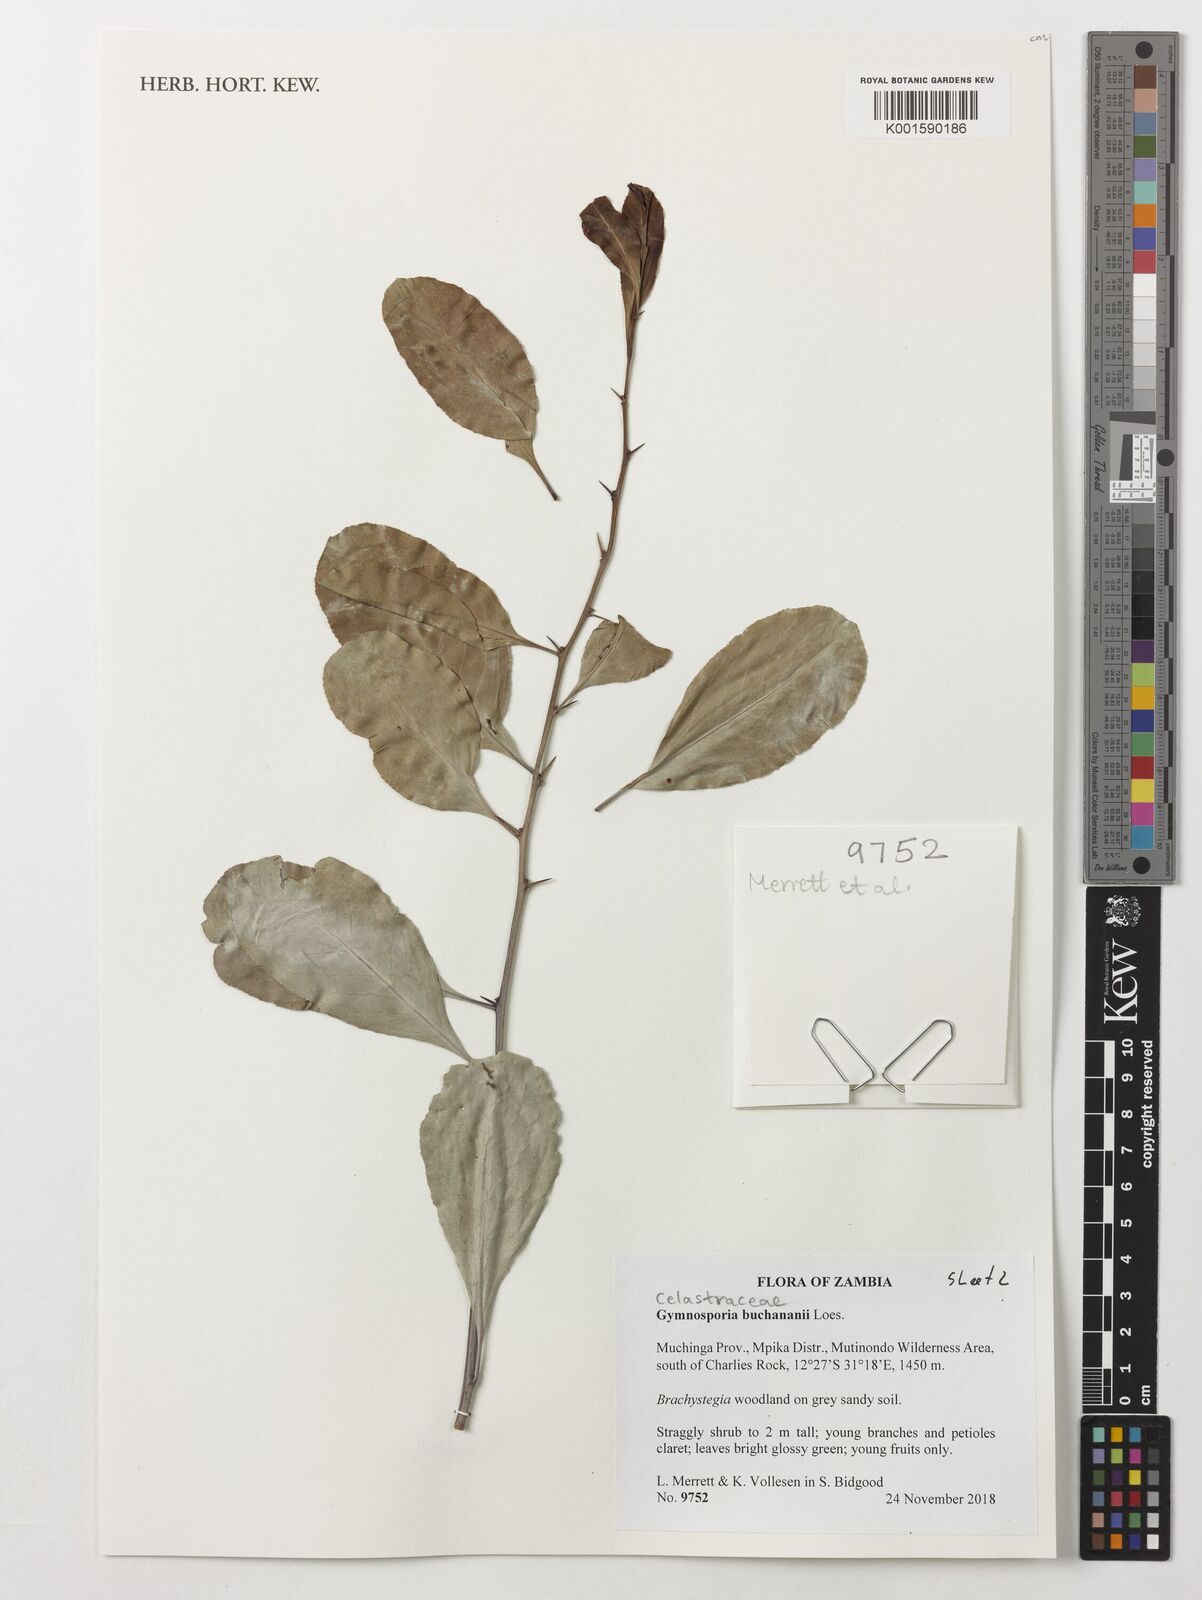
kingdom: Plantae
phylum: Tracheophyta
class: Magnoliopsida
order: Celastrales
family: Celastraceae
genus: Gymnosporia
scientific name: Gymnosporia buchananii
